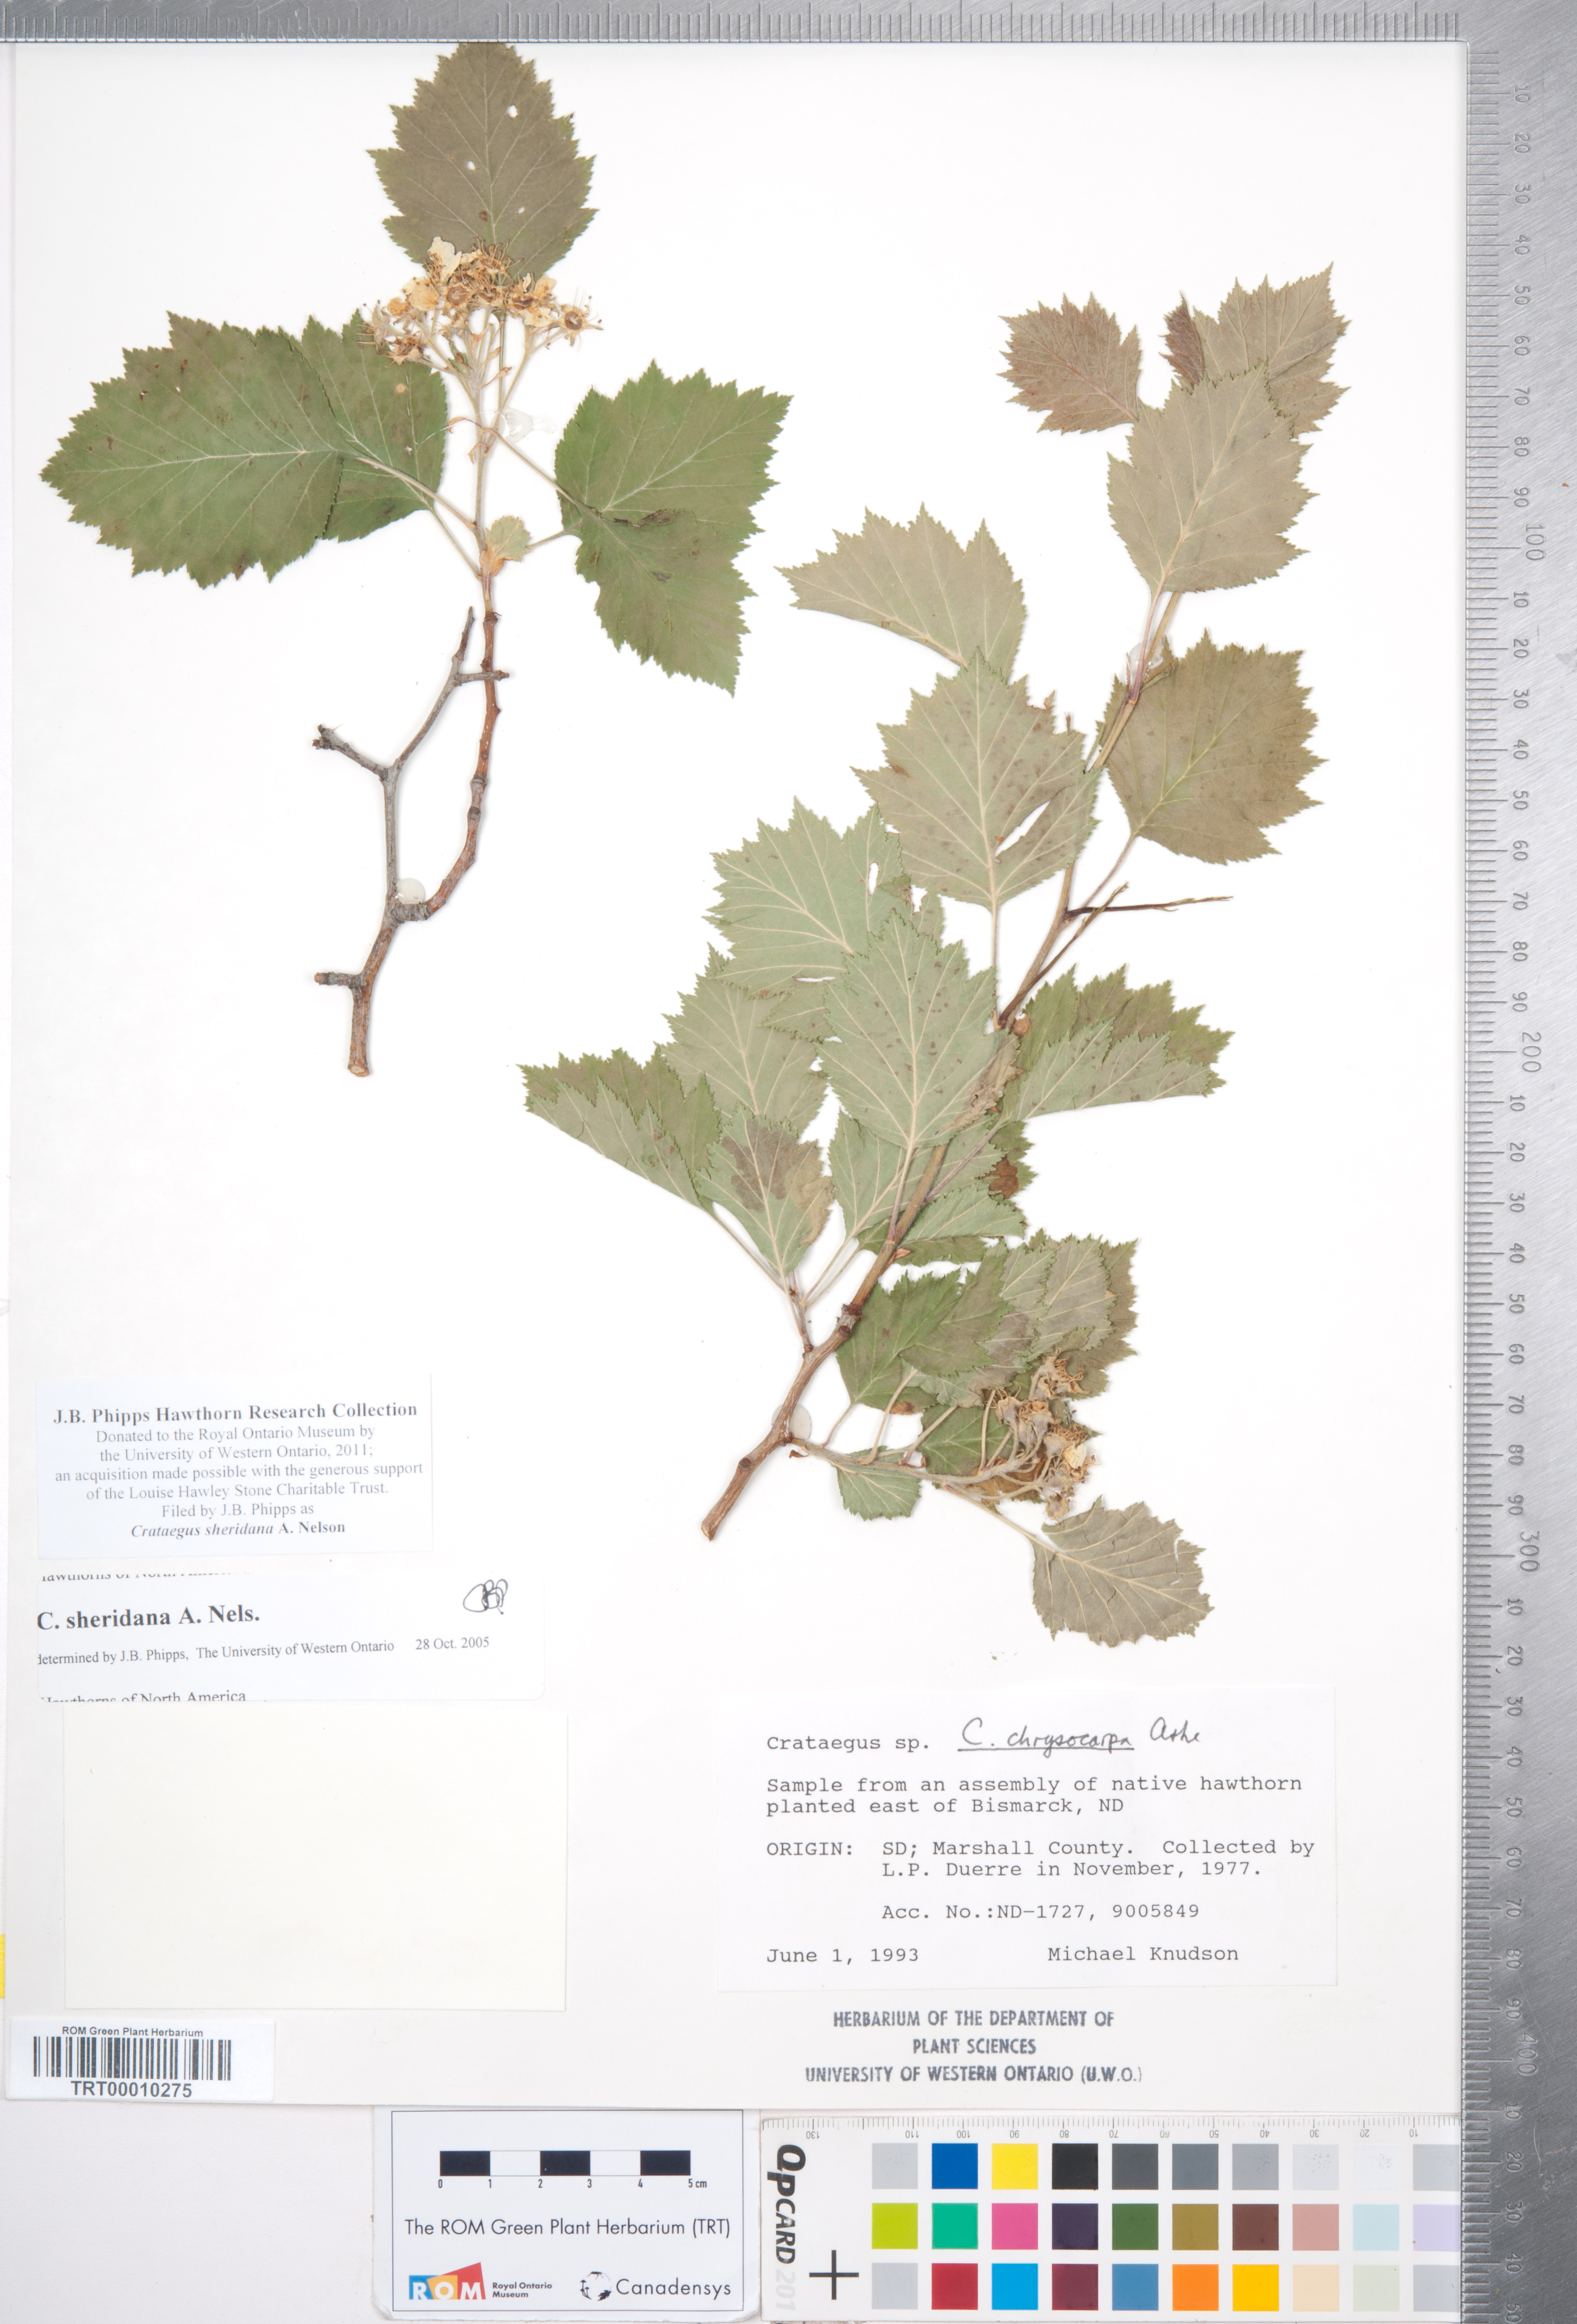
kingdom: Plantae
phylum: Tracheophyta
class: Magnoliopsida
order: Rosales
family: Rosaceae
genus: Crataegus
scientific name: Crataegus chrysocarpa
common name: Fire-berry hawthorn
